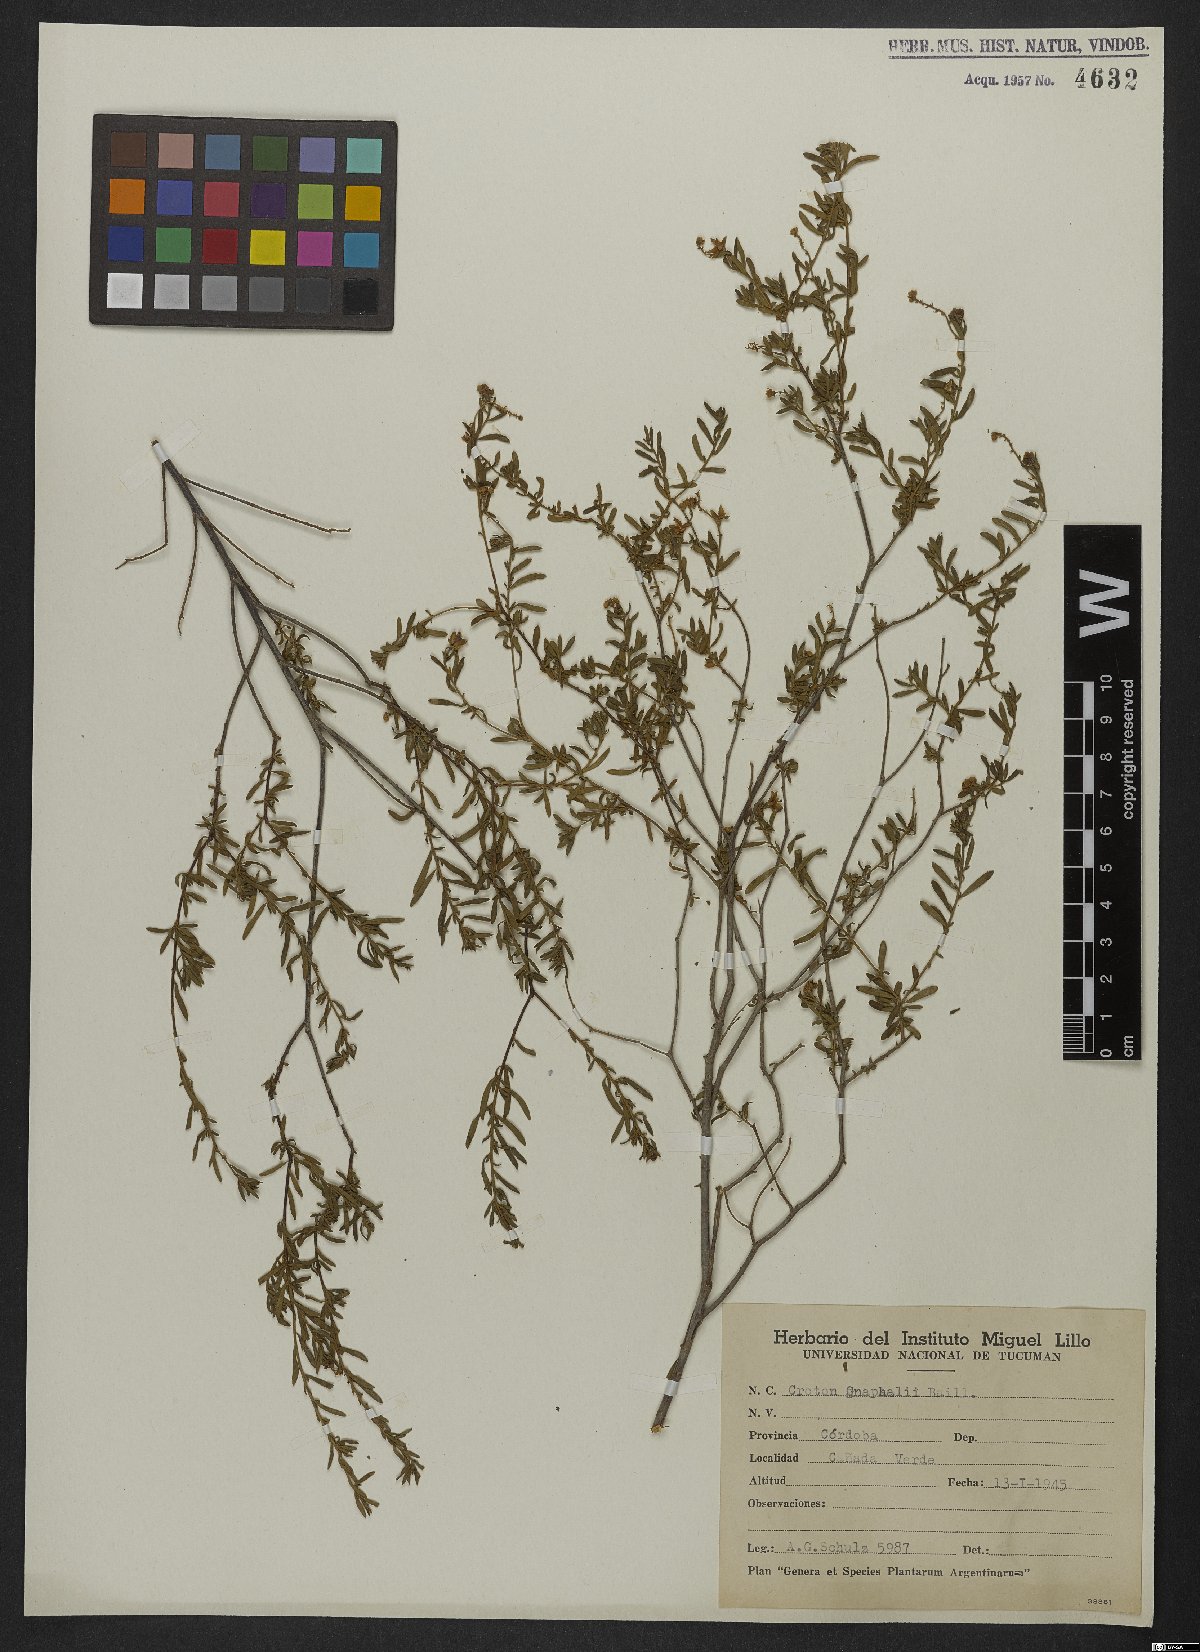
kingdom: Plantae
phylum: Tracheophyta
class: Magnoliopsida
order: Malpighiales
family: Euphorbiaceae
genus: Croton
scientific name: Croton gnaphalii
